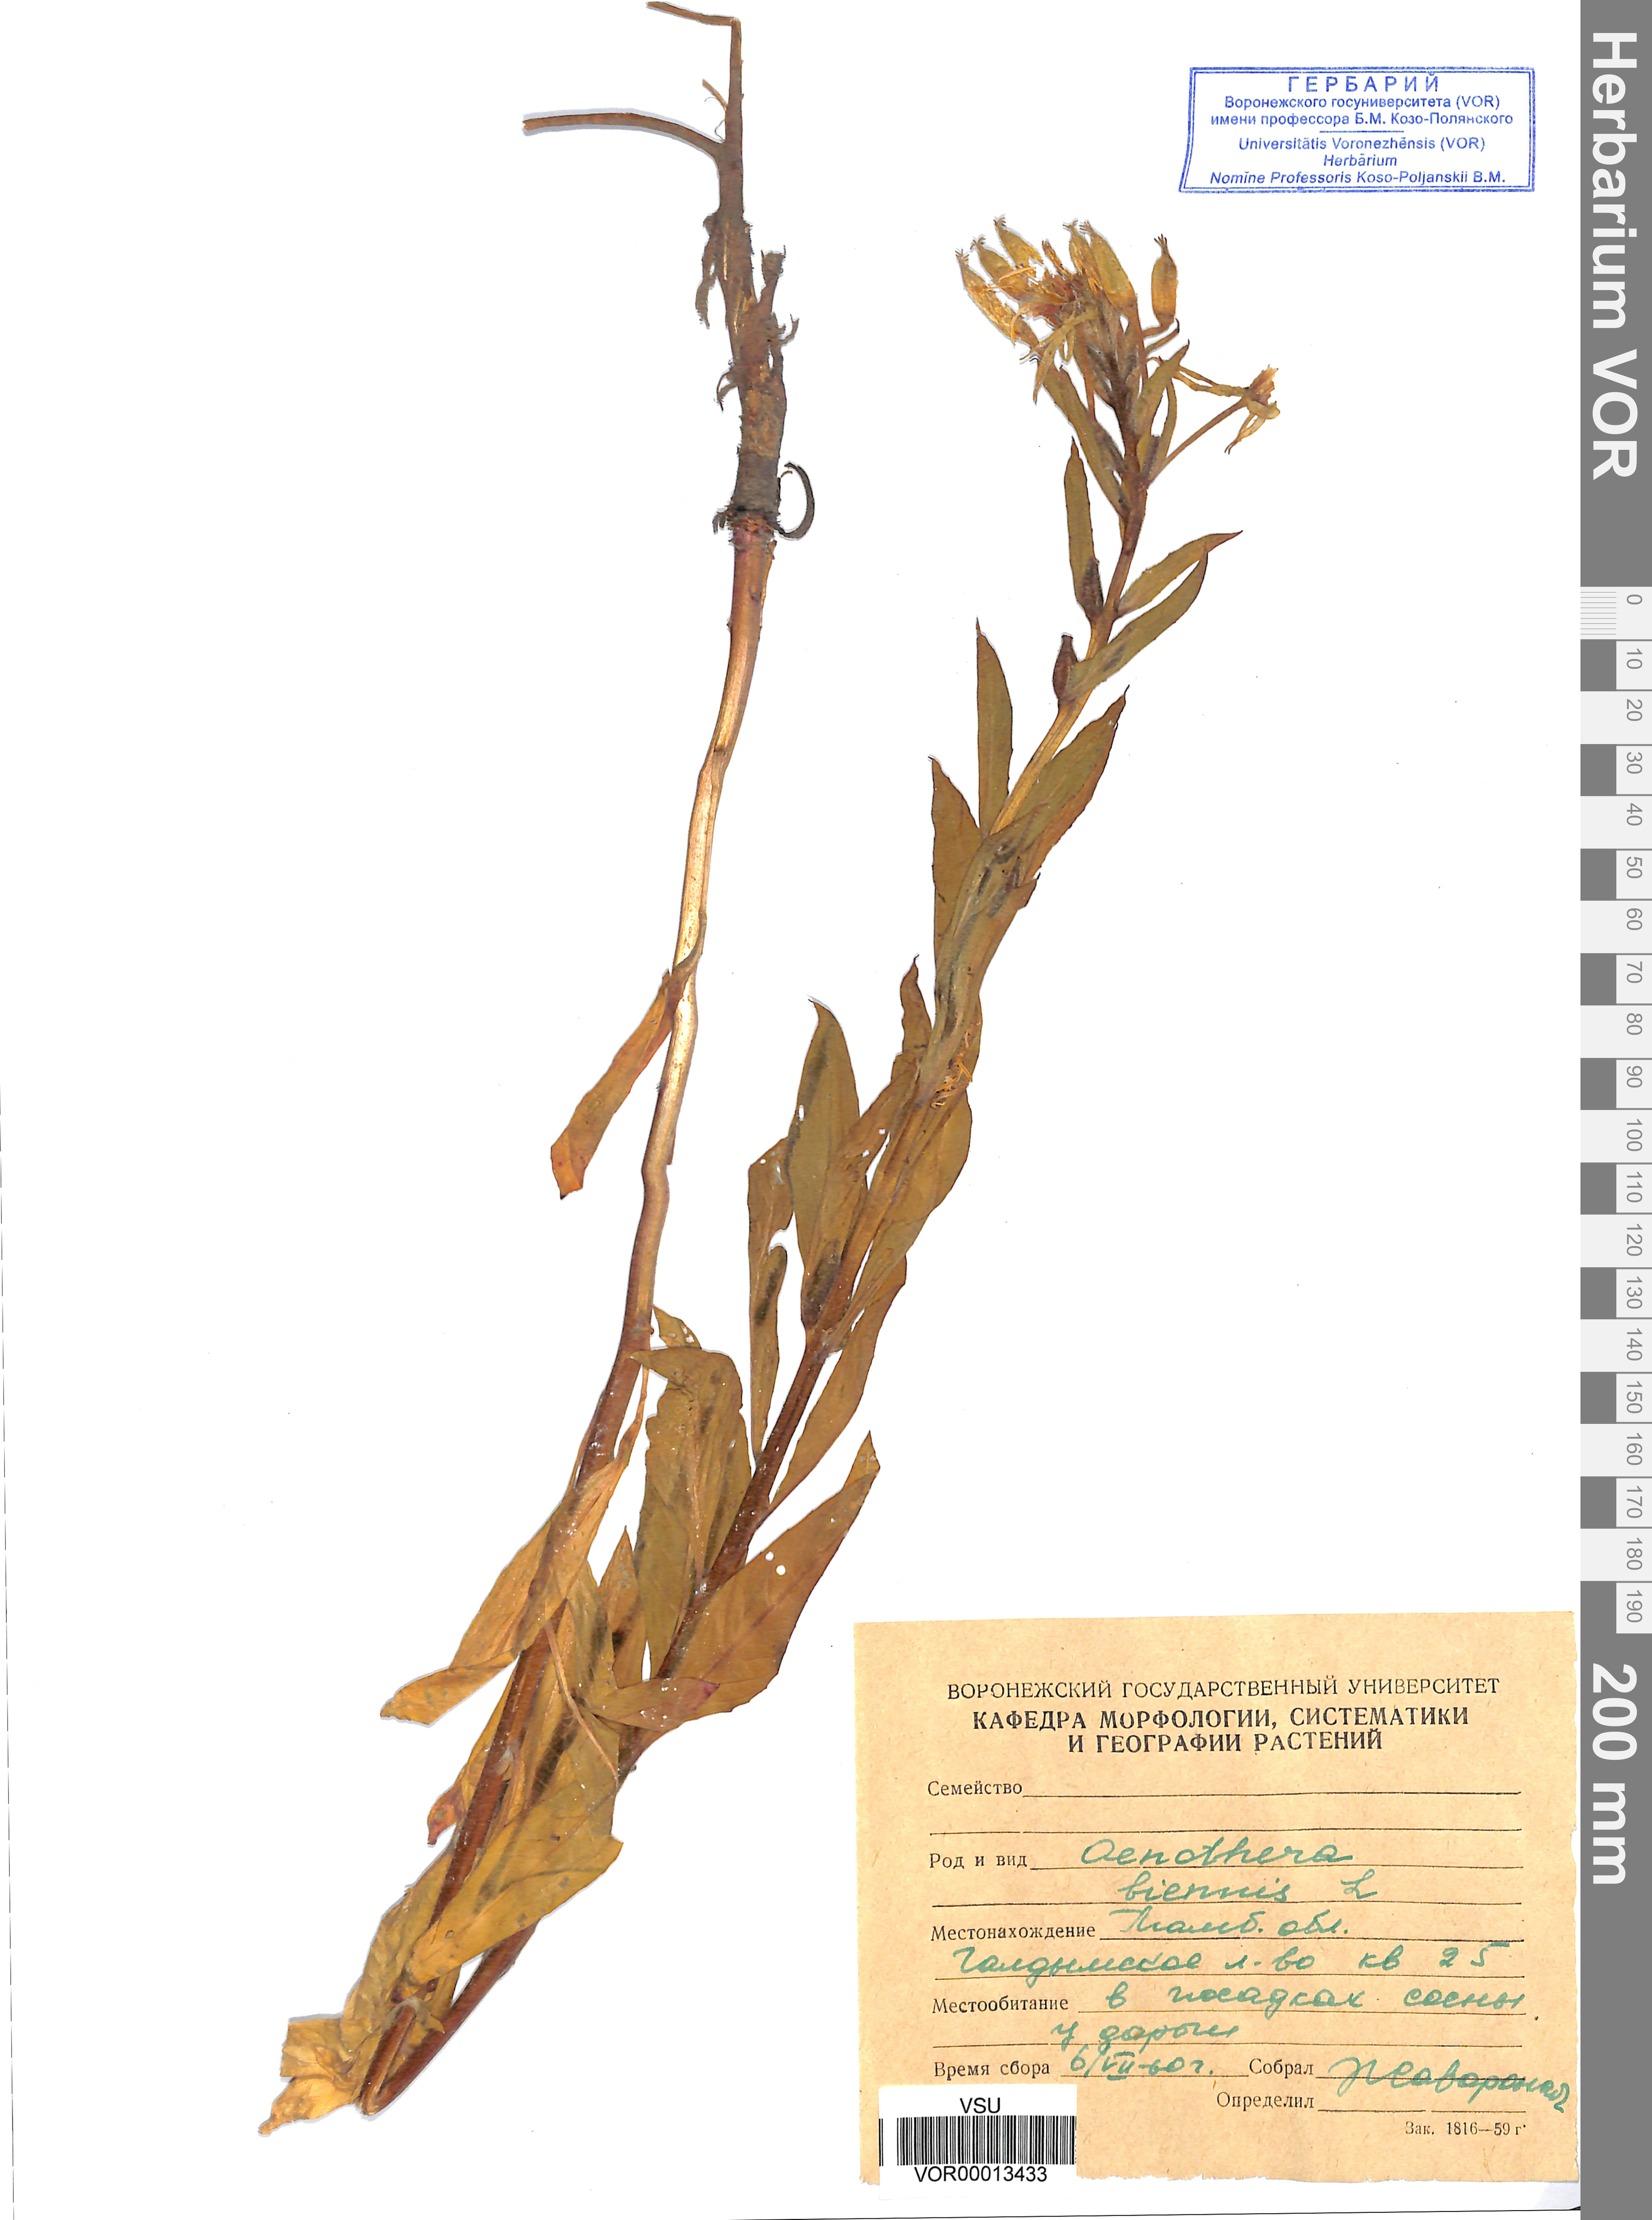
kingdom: Plantae
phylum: Tracheophyta
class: Magnoliopsida
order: Myrtales
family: Onagraceae
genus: Oenothera
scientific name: Oenothera biennis
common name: Common evening-primrose
